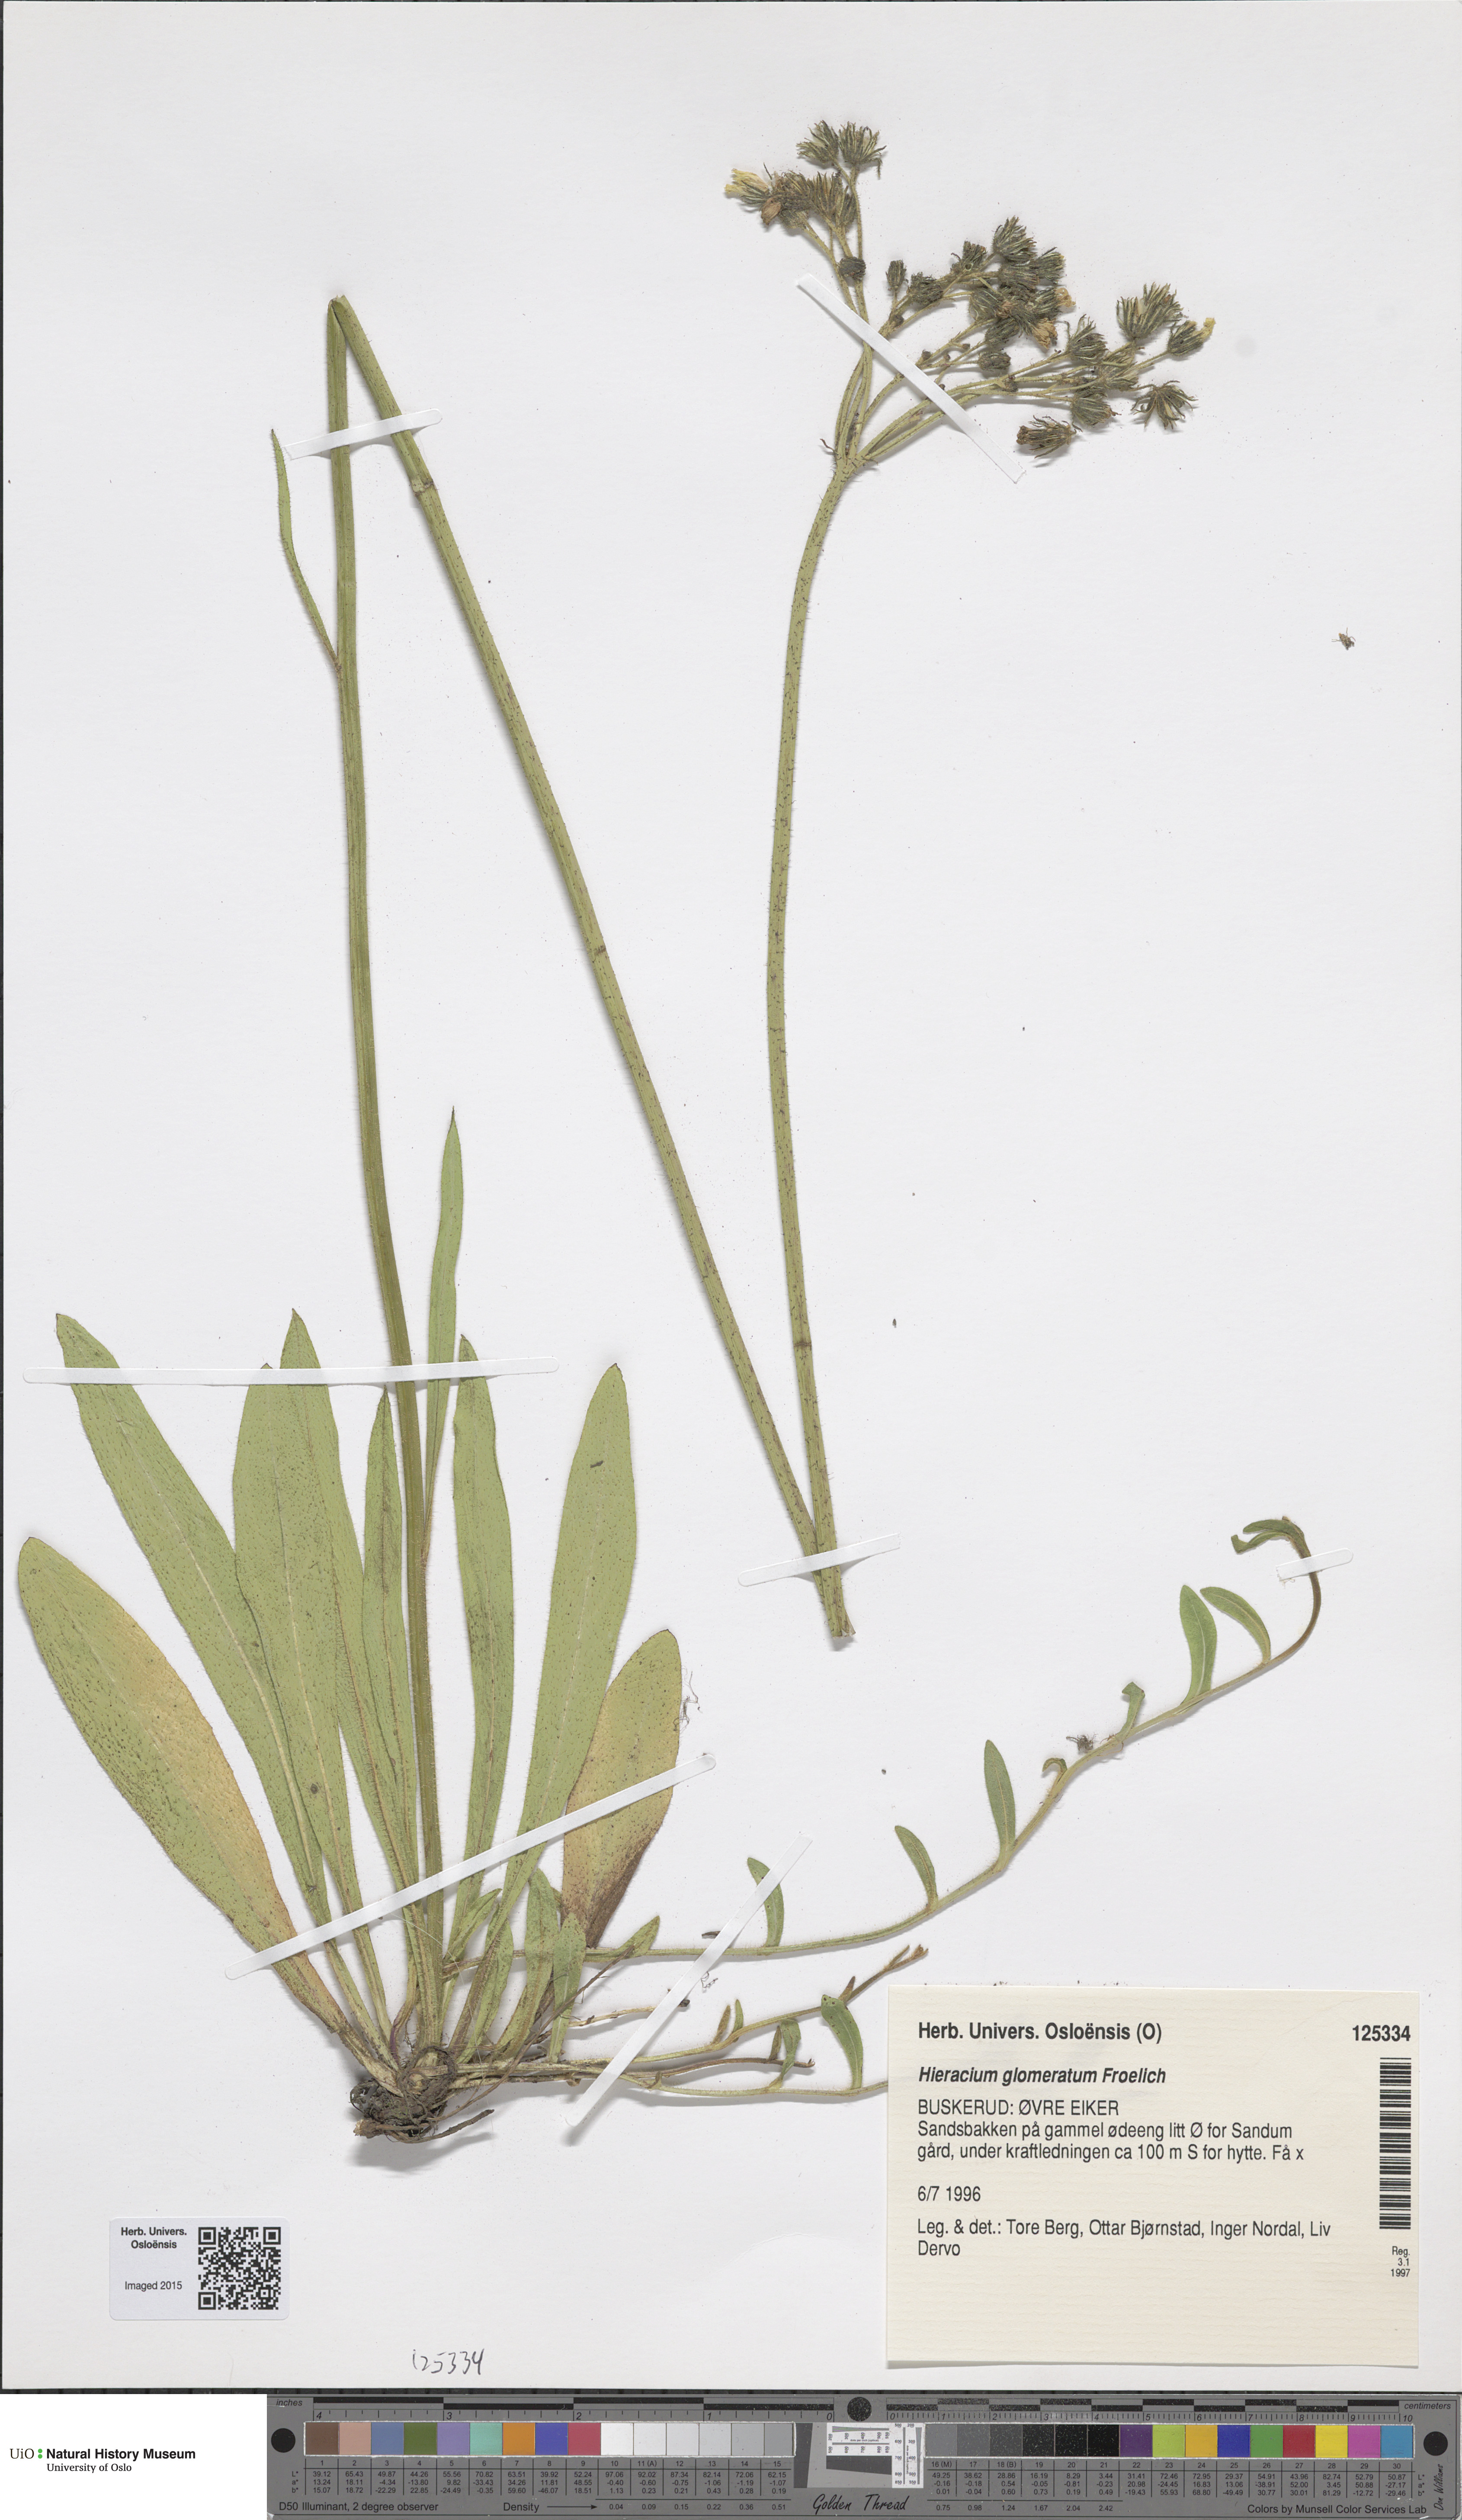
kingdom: Plantae
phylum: Tracheophyta
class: Magnoliopsida
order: Asterales
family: Asteraceae
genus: Pilosella
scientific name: Pilosella glomerata
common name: Queen devil hawkweed
